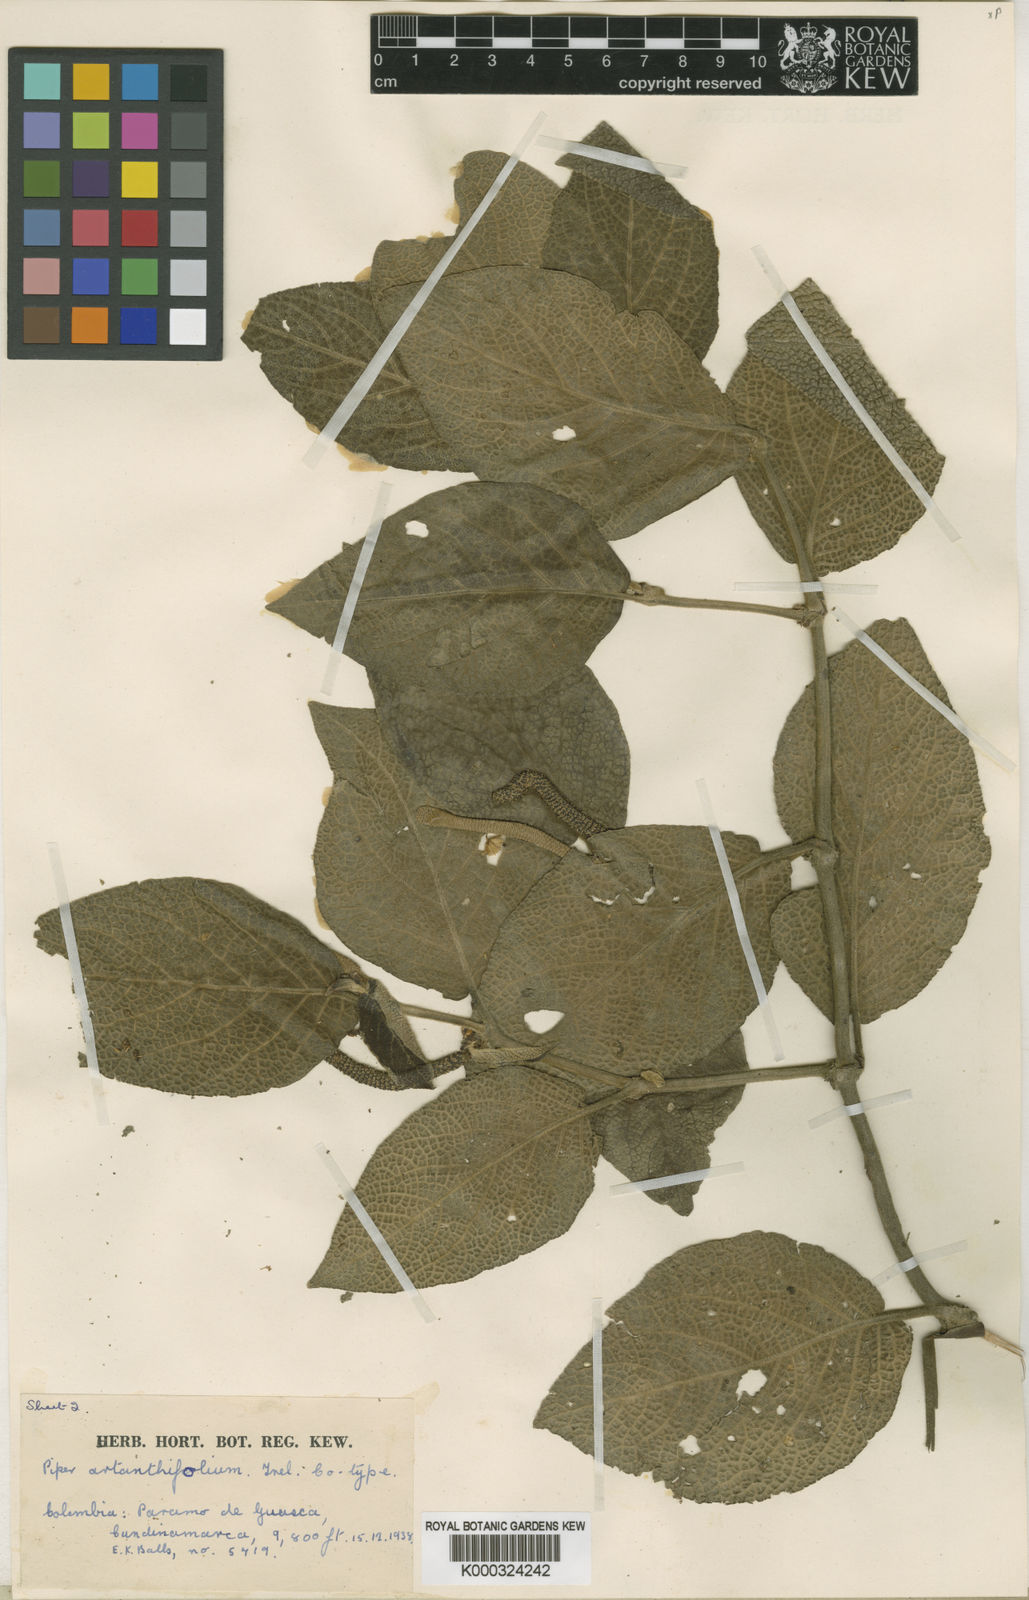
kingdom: Plantae
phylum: Tracheophyta
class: Magnoliopsida
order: Piperales
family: Piperaceae
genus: Piper
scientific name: Piper
